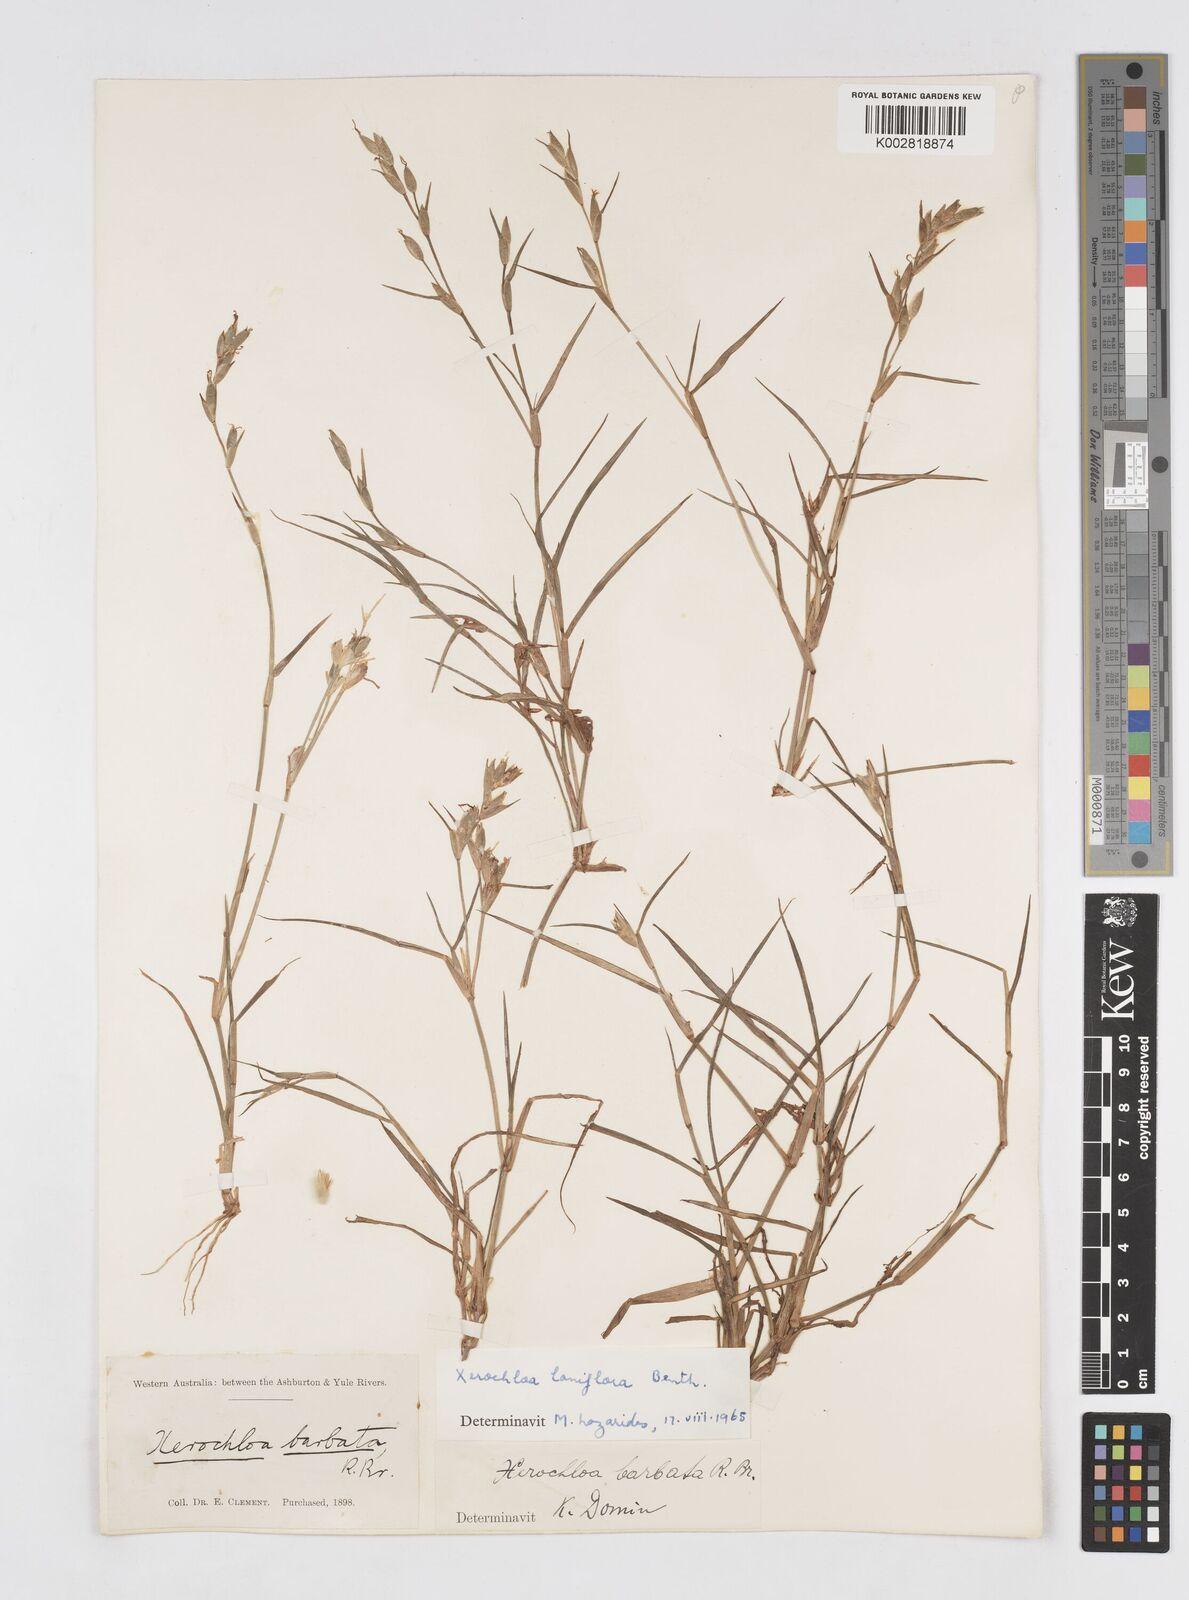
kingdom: Plantae
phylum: Tracheophyta
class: Liliopsida
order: Poales
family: Poaceae
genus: Xerochloa
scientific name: Xerochloa laniflora
